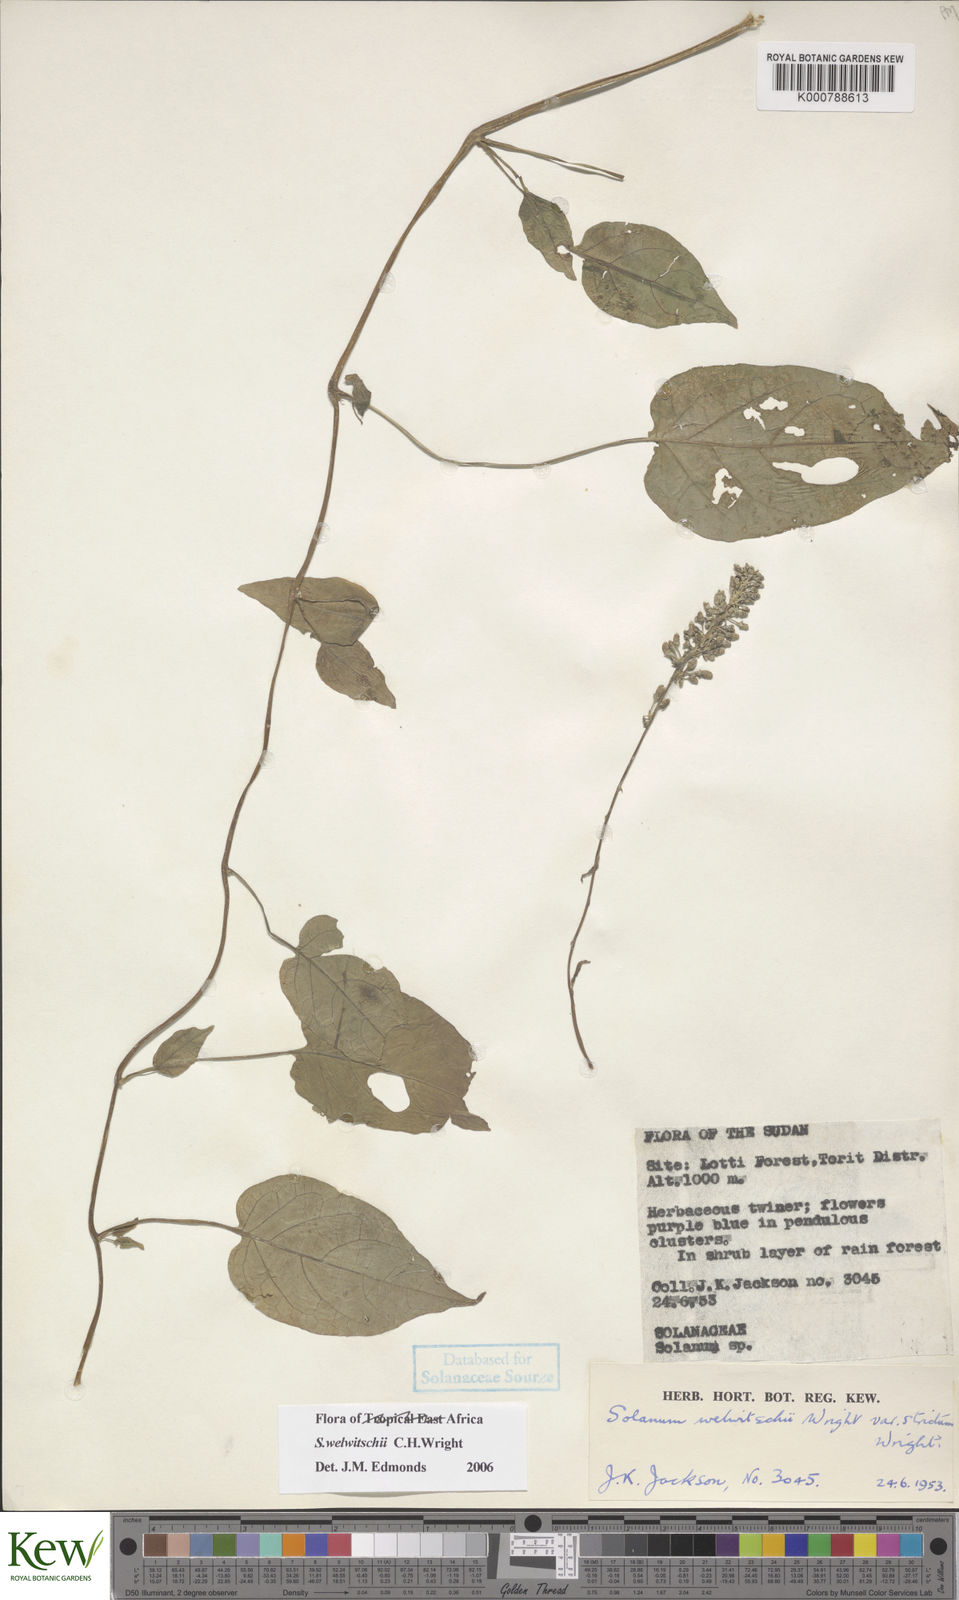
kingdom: Plantae
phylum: Tracheophyta
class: Magnoliopsida
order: Solanales
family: Solanaceae
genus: Solanum
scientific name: Solanum terminale
